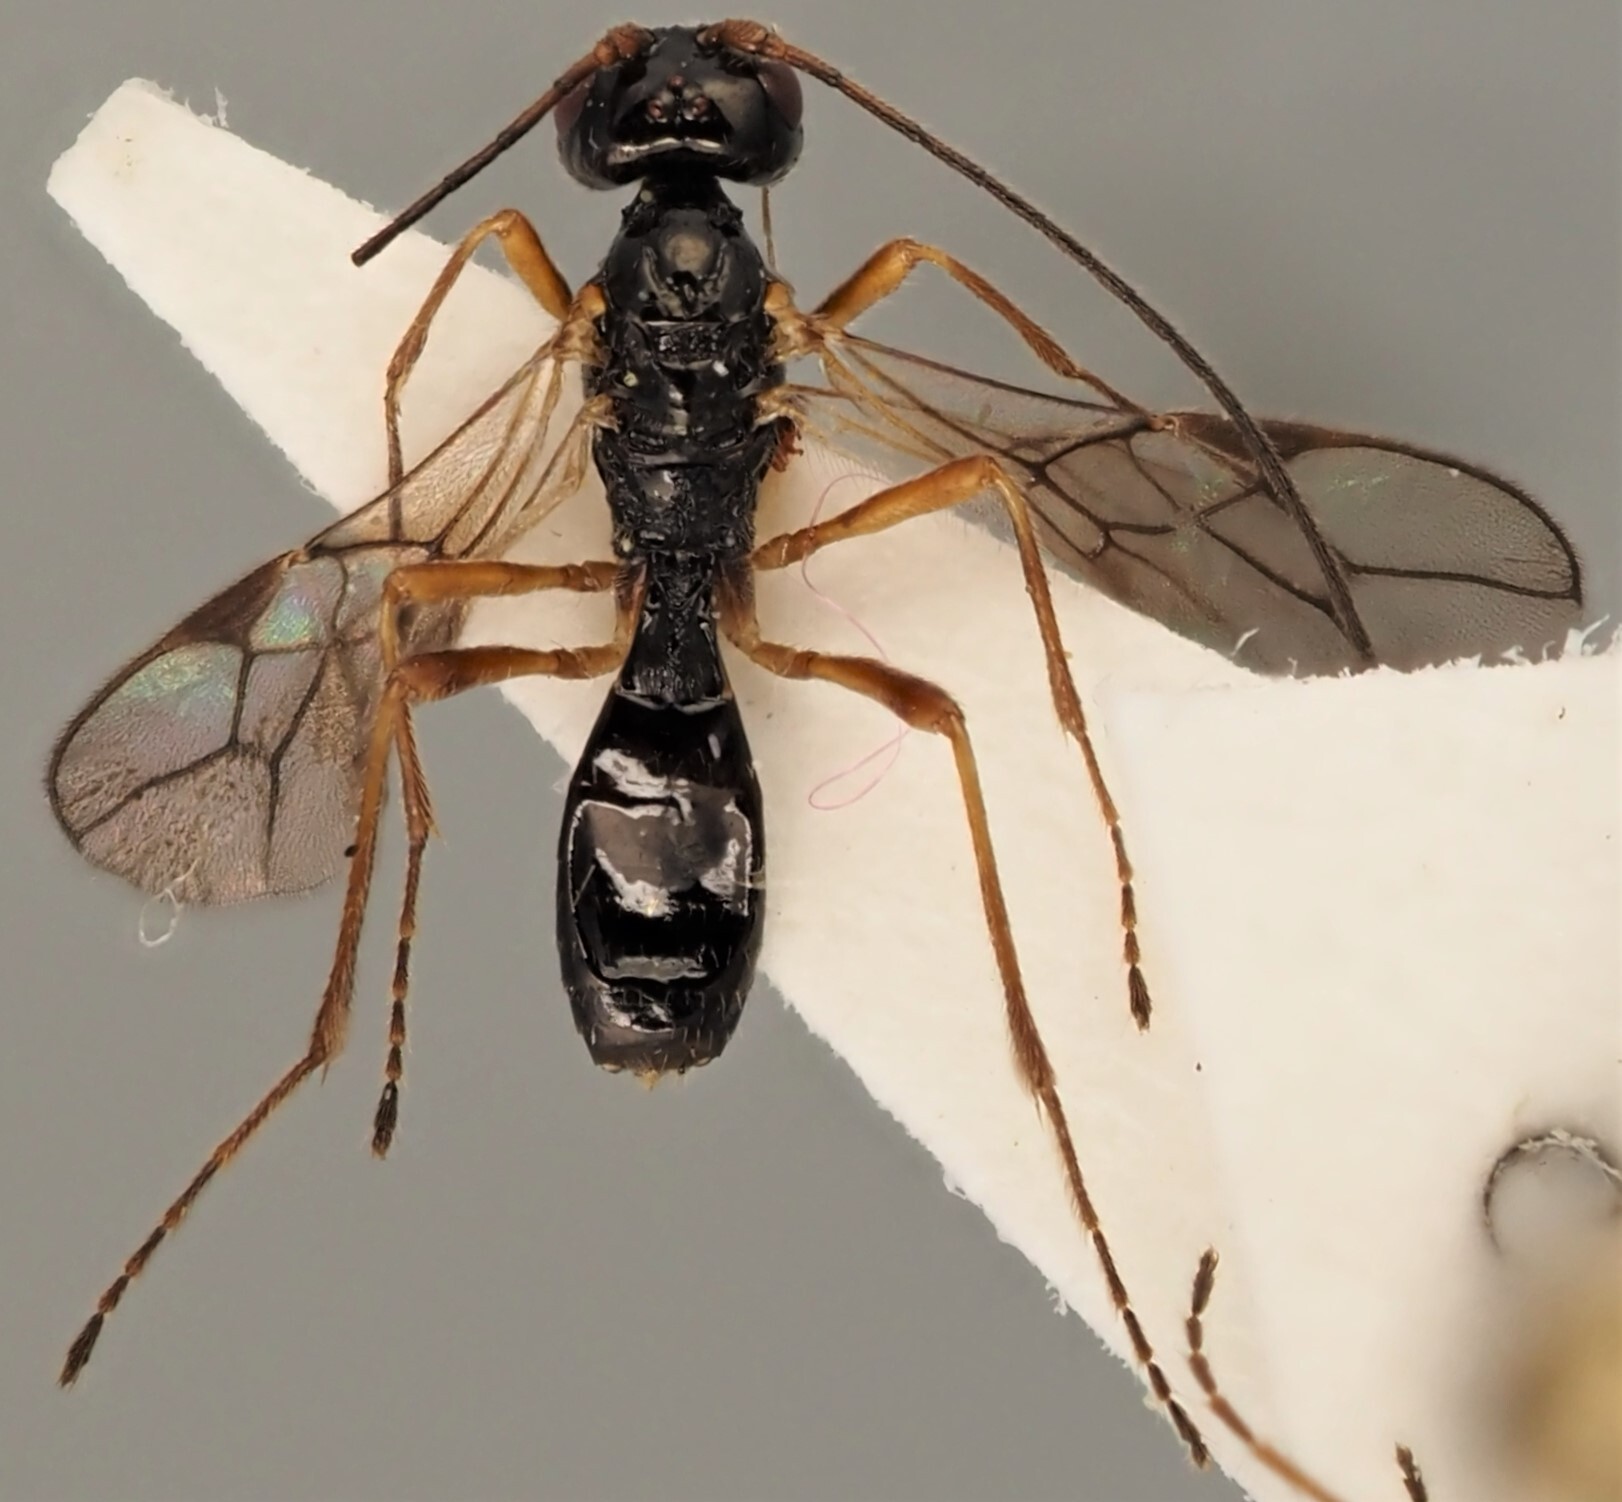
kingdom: Animalia
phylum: Arthropoda
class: Insecta
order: Hymenoptera
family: Braconidae
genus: Phaenocarpa
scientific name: Phaenocarpa picinervis
